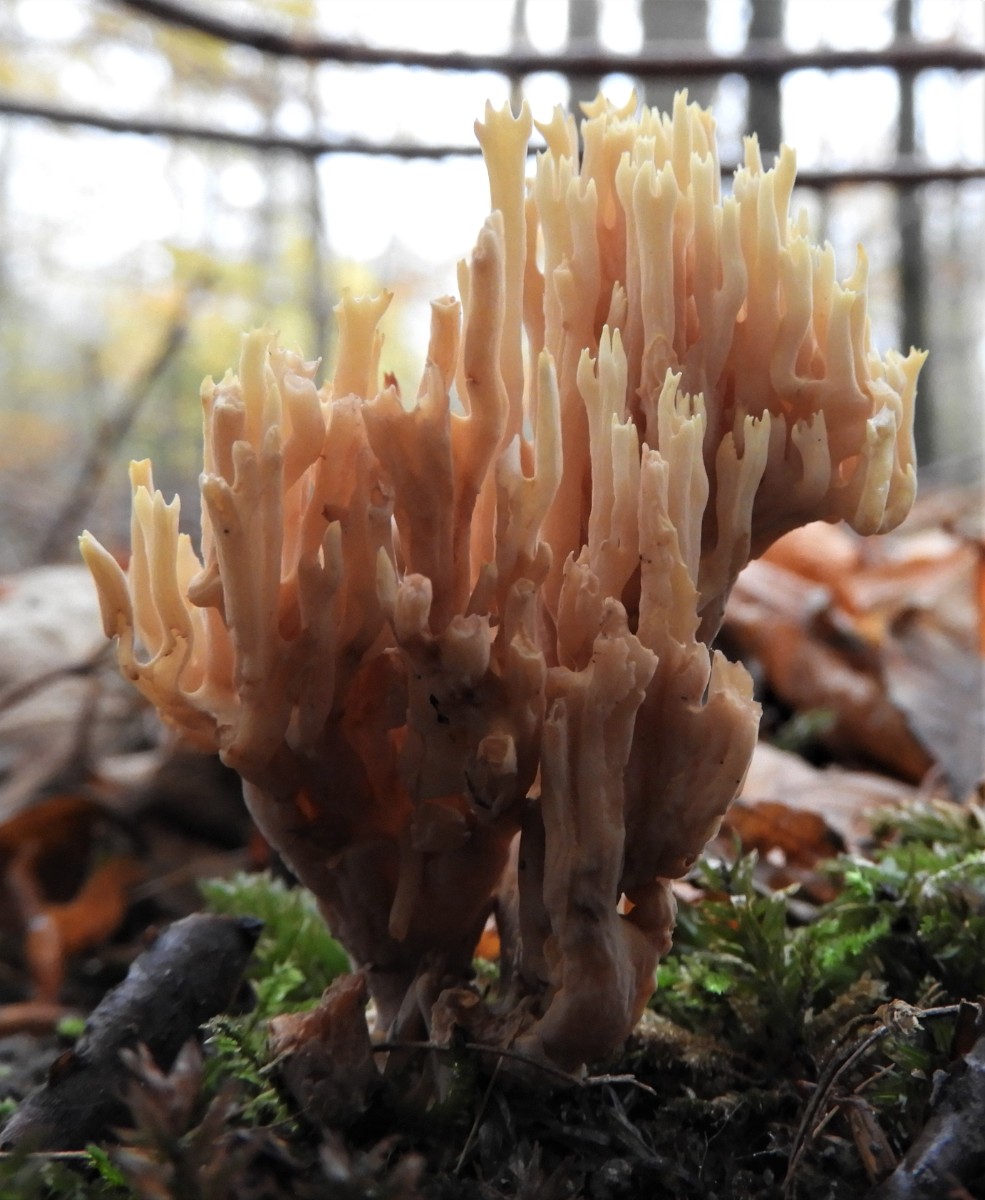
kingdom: Fungi
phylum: Basidiomycota
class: Agaricomycetes
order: Gomphales
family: Gomphaceae
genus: Ramaria
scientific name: Ramaria stricta
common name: rank koralsvamp
